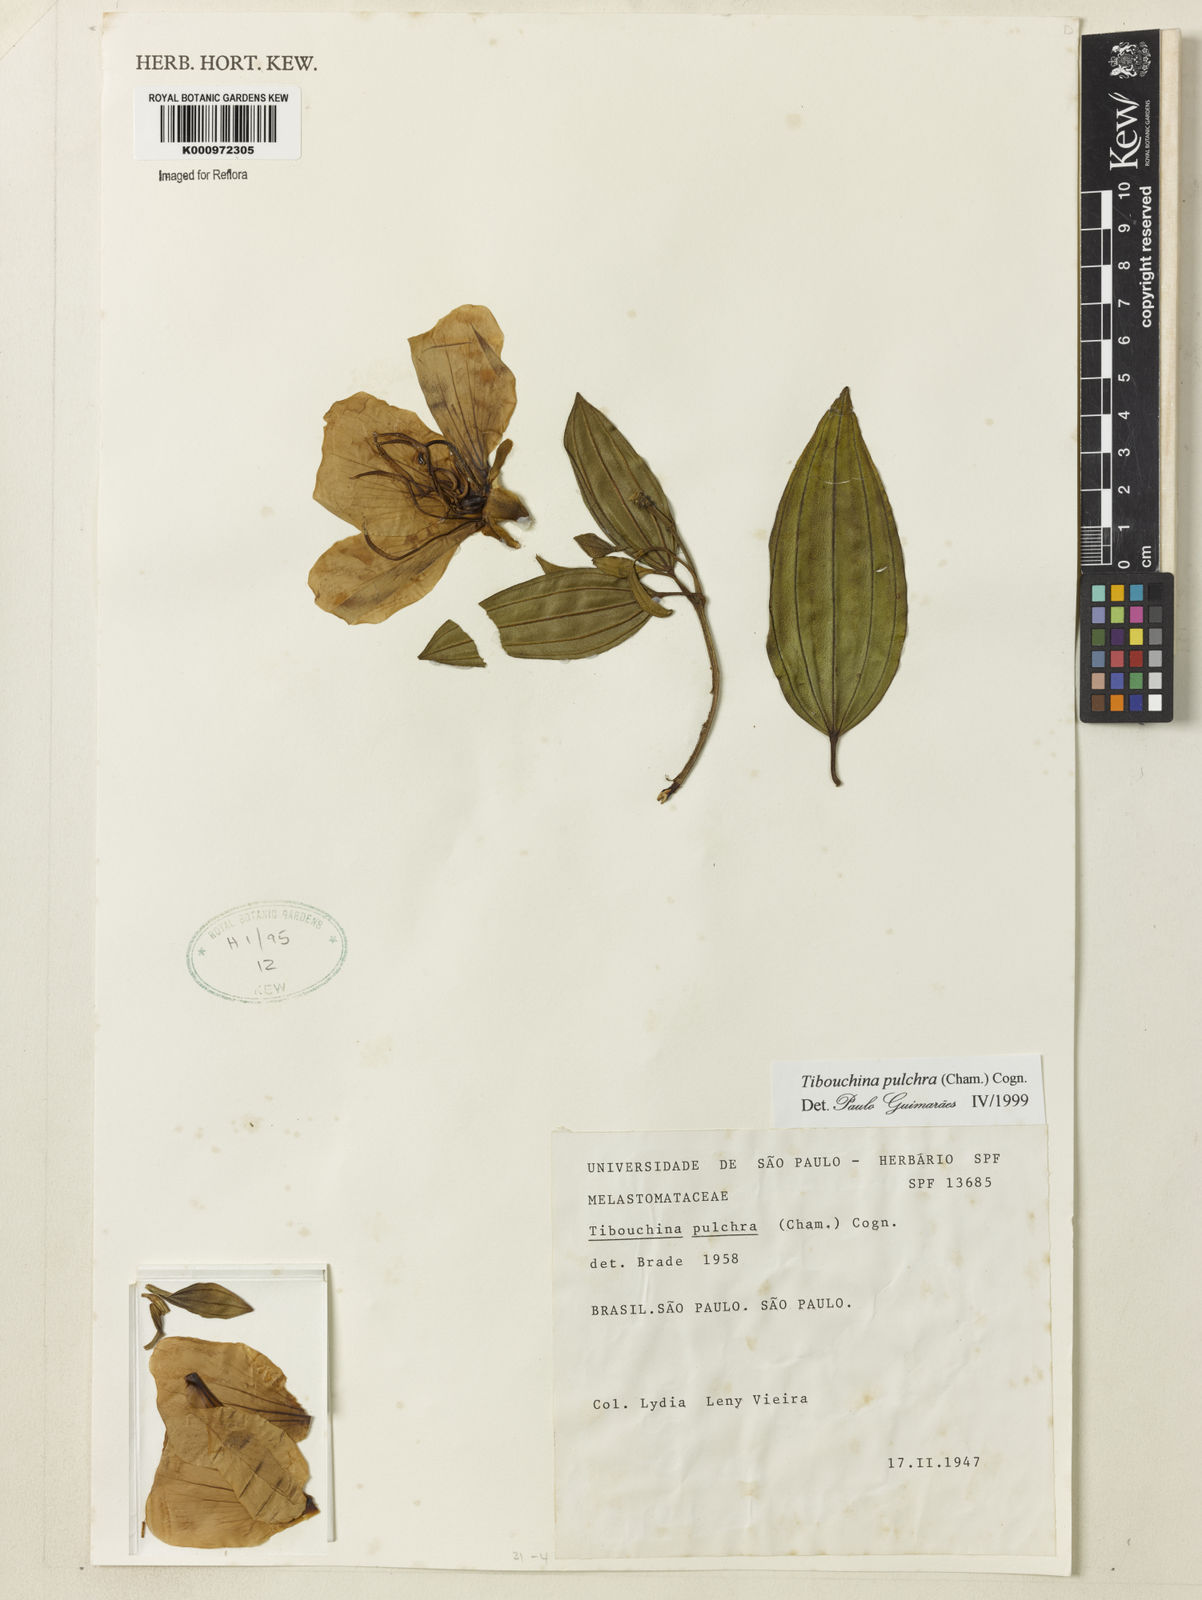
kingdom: Plantae
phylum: Tracheophyta
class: Magnoliopsida
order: Myrtales
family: Melastomataceae
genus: Pleroma
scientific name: Pleroma raddianum
